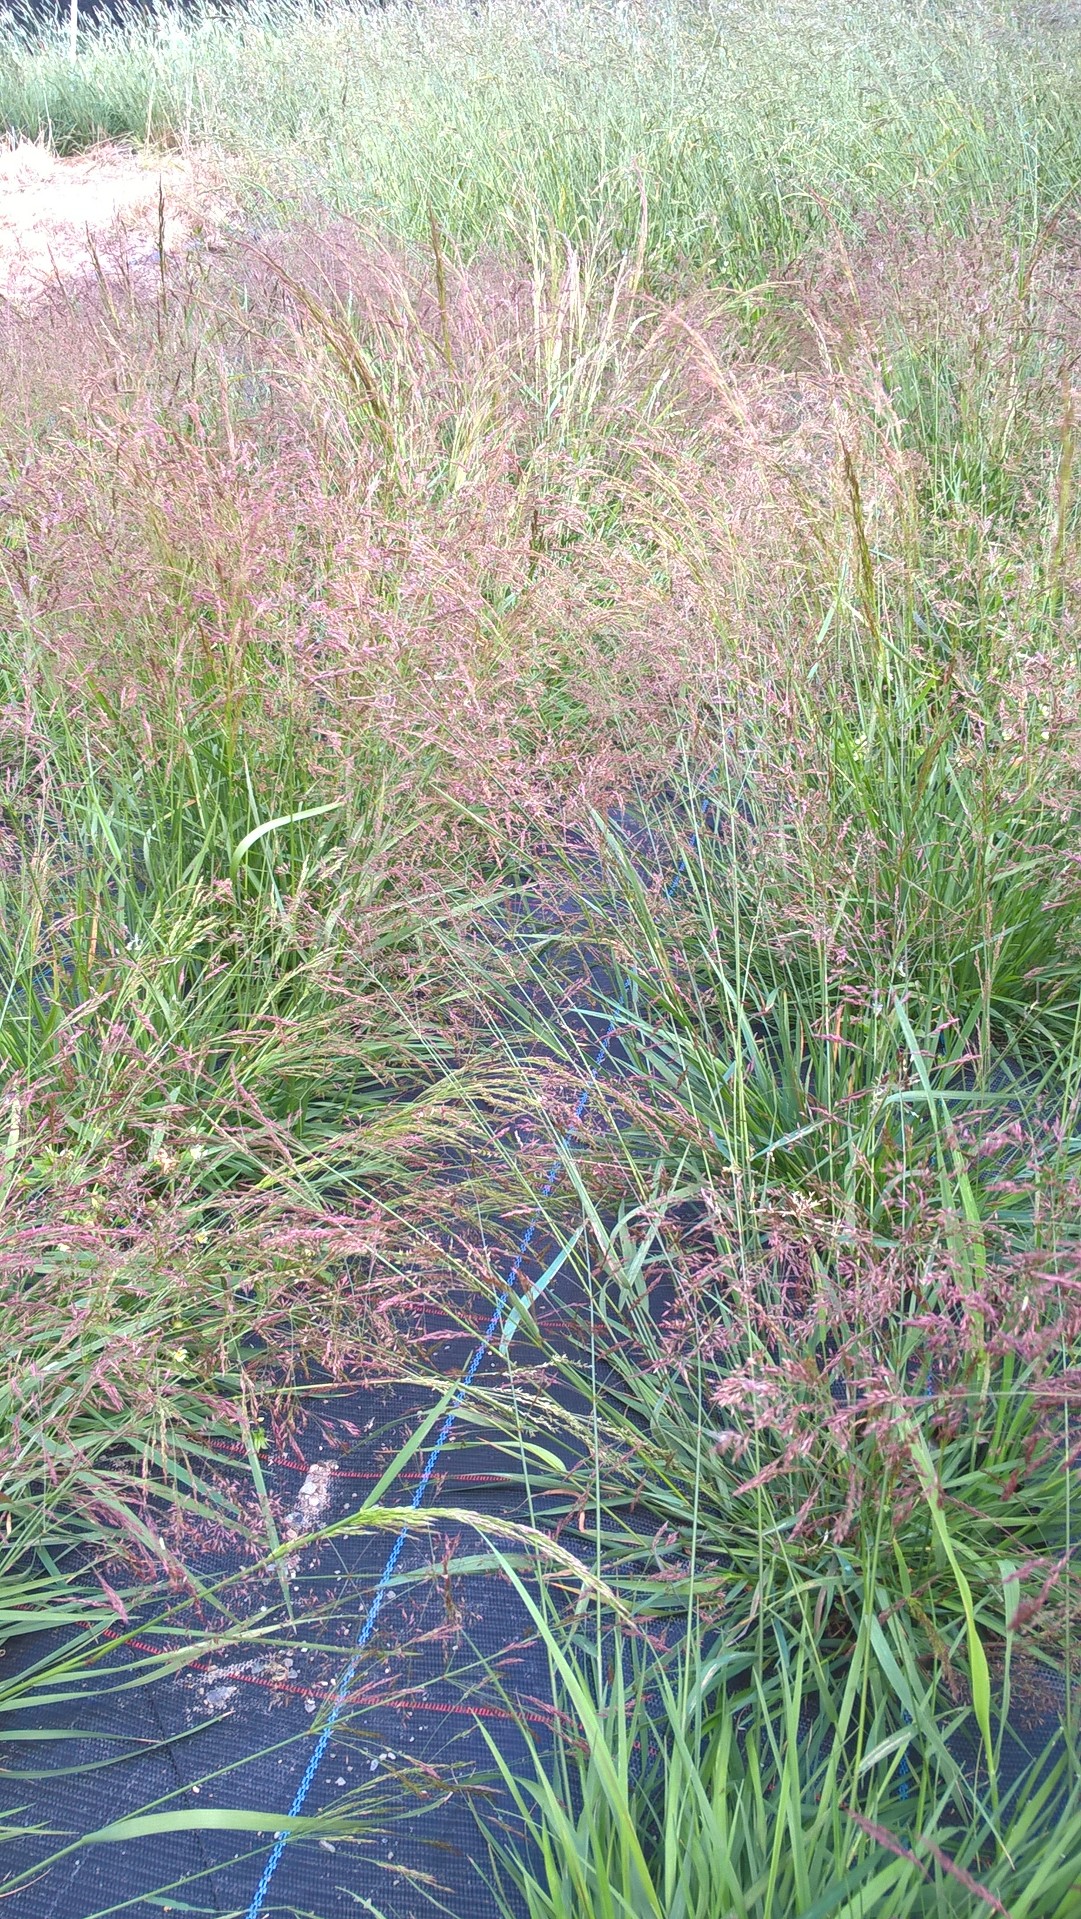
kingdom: Plantae
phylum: Tracheophyta
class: Liliopsida
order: Poales
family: Poaceae
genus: Agrostis
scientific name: Agrostis capillaris
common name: Colonial bentgrass
